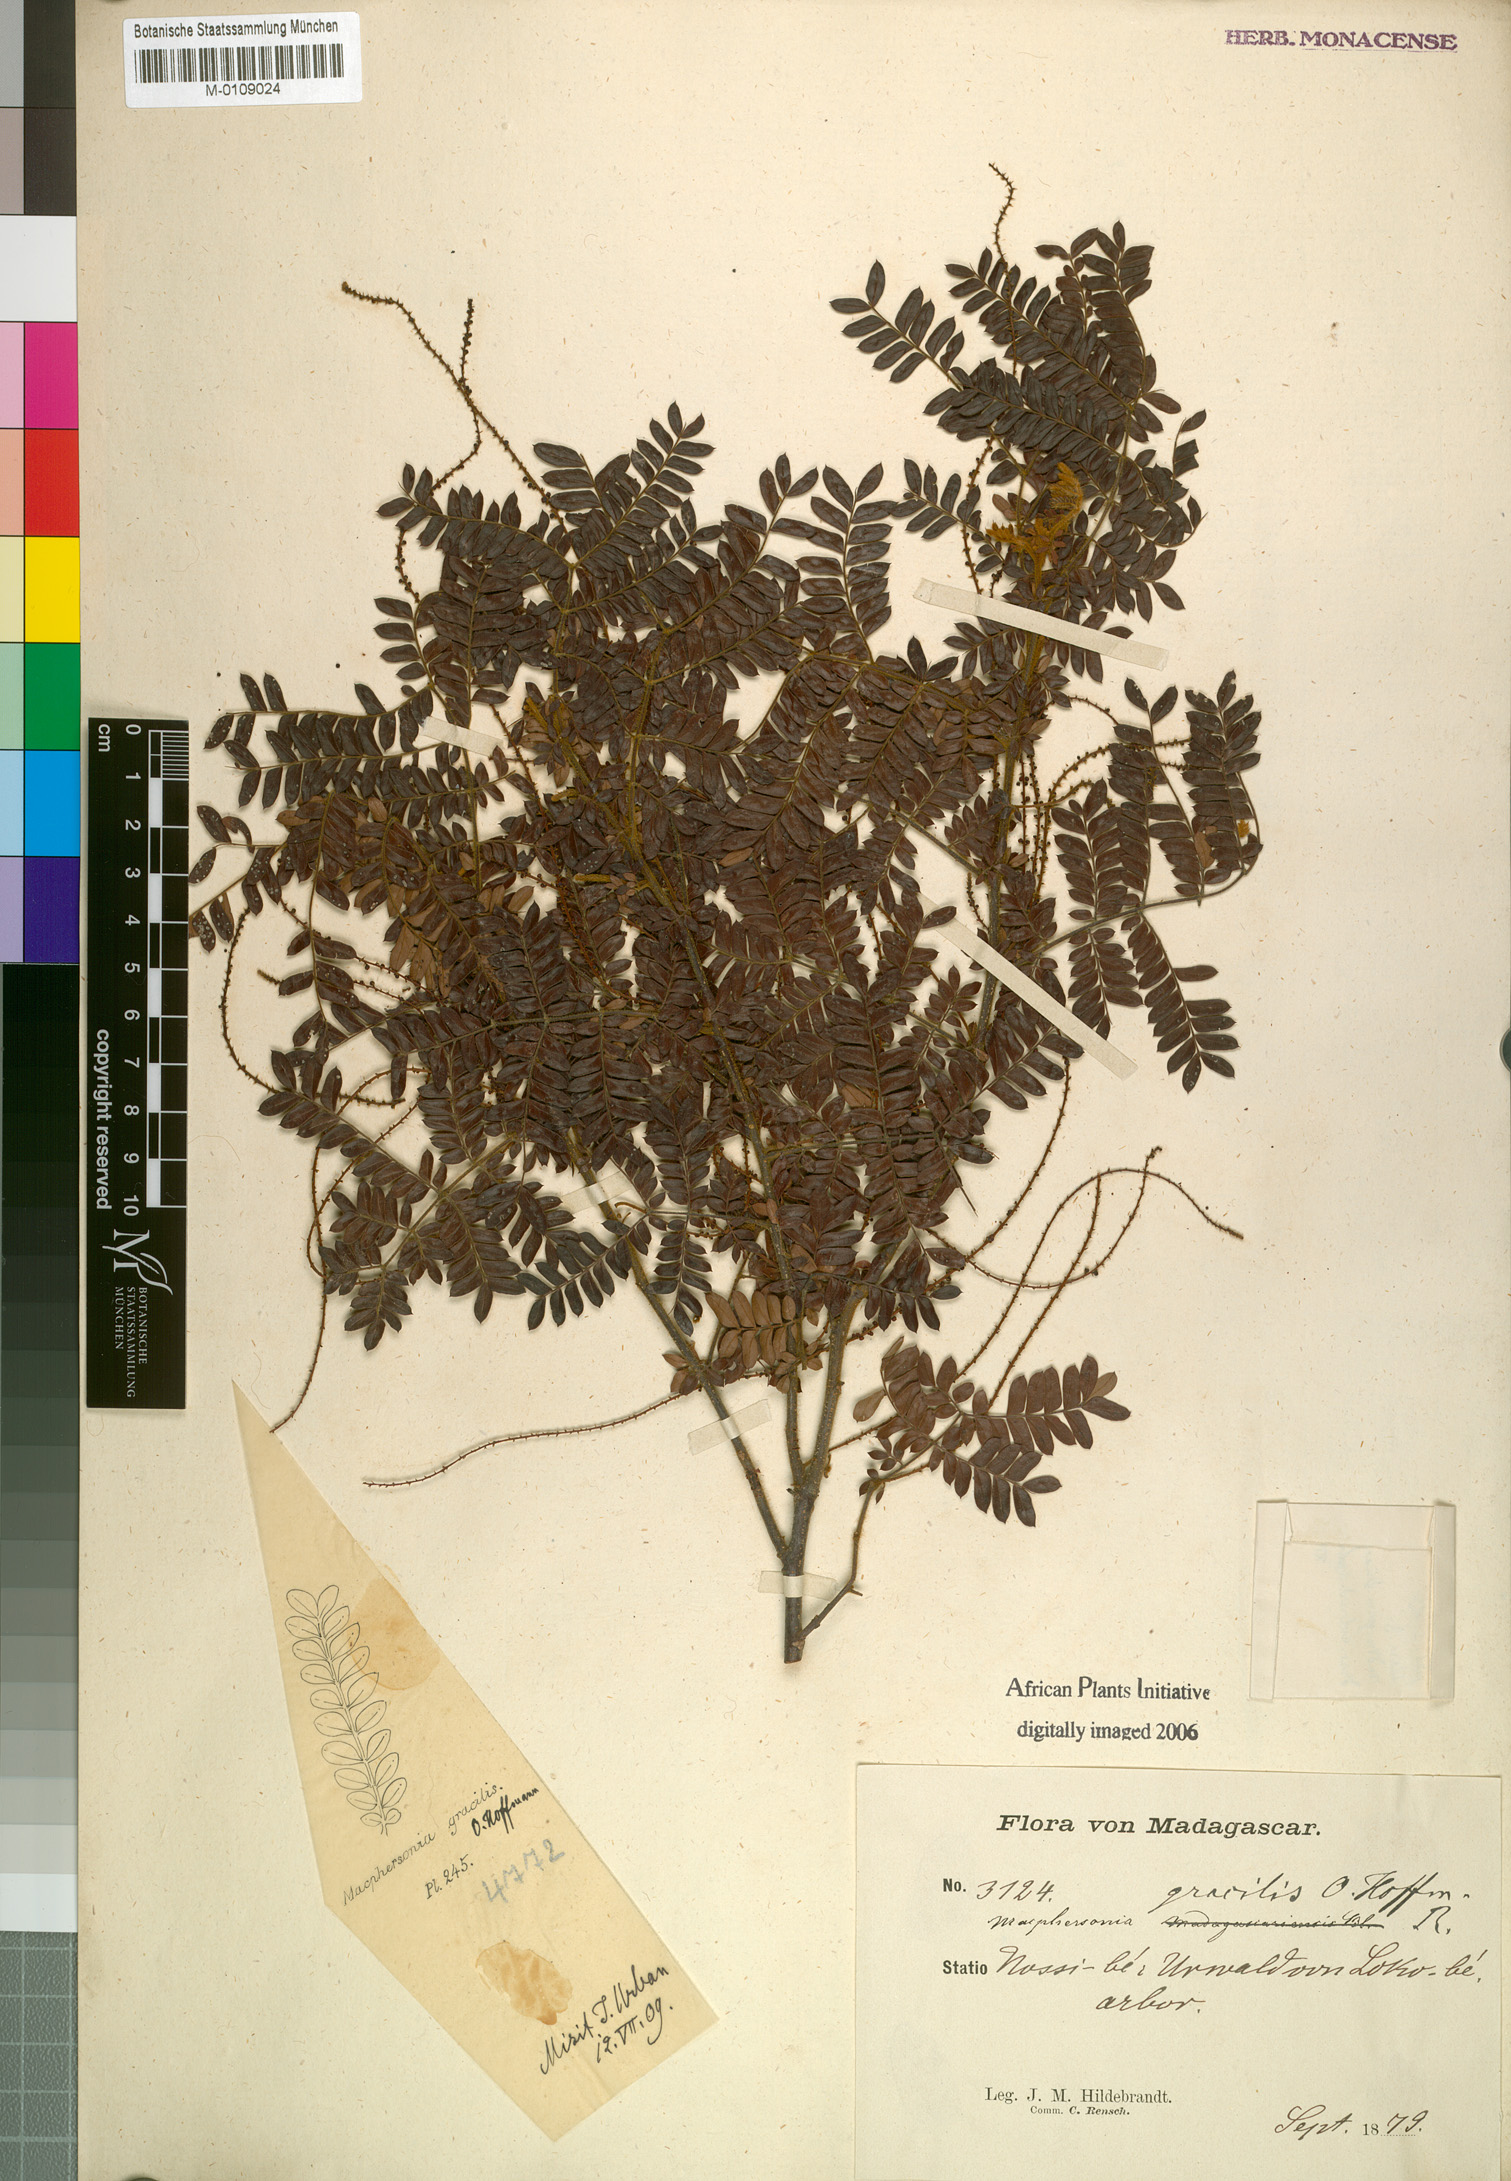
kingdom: Plantae
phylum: Tracheophyta
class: Magnoliopsida
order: Sapindales
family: Sapindaceae
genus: Macphersonia
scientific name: Macphersonia gracilis
